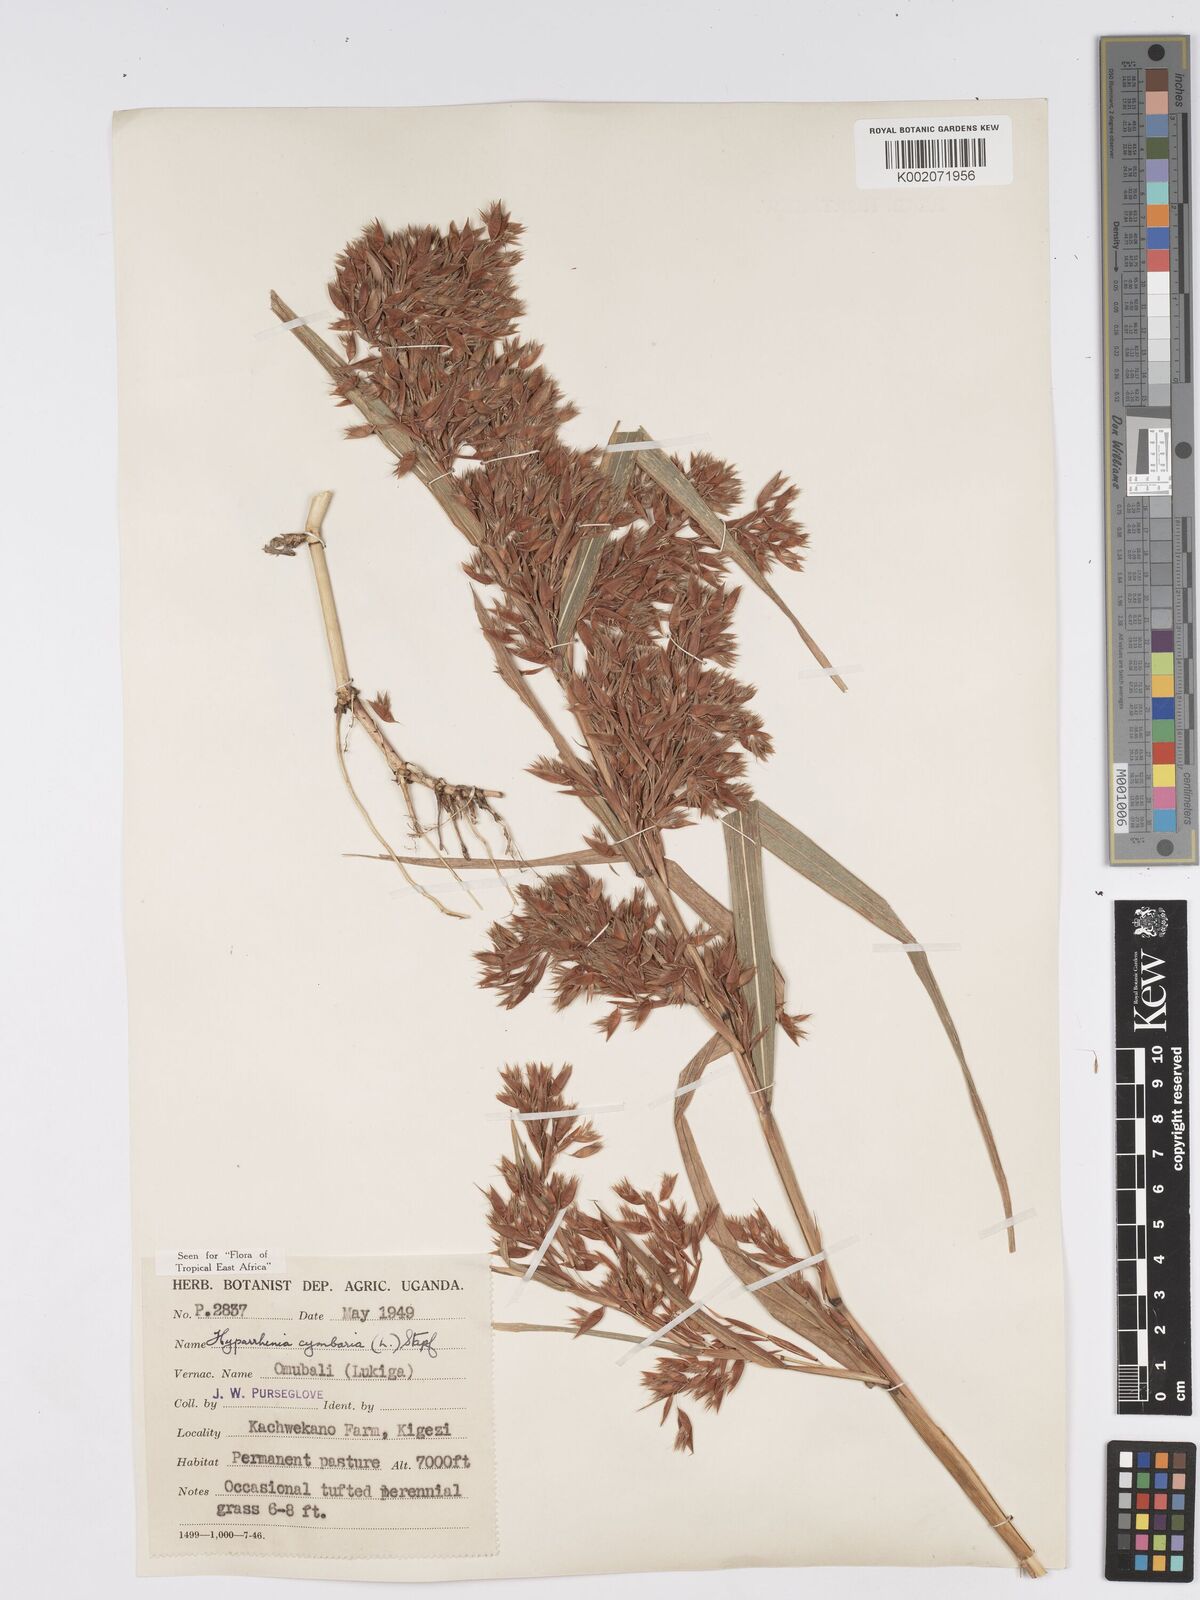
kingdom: Plantae
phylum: Tracheophyta
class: Liliopsida
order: Poales
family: Poaceae
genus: Hyparrhenia
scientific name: Hyparrhenia cymbaria
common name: Boat thatching grass
